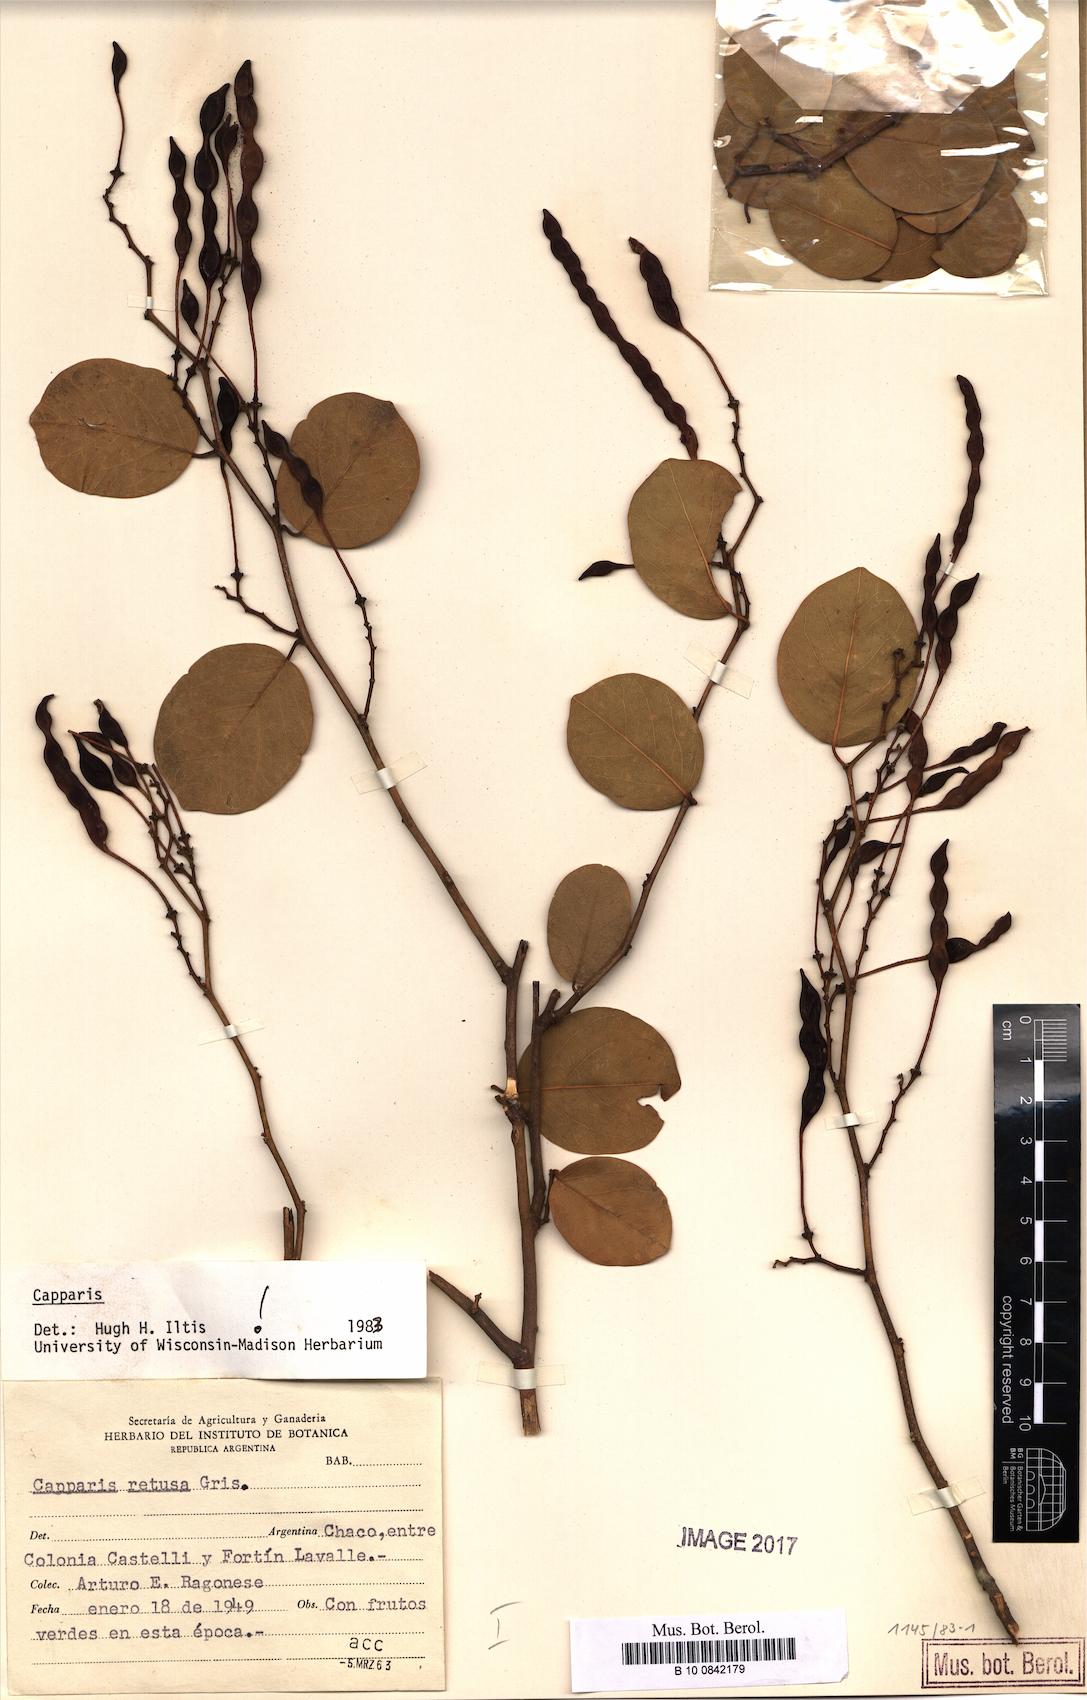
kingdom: Plantae
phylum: Tracheophyta
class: Magnoliopsida
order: Brassicales
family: Capparaceae
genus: Cynophalla
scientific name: Cynophalla retusa
